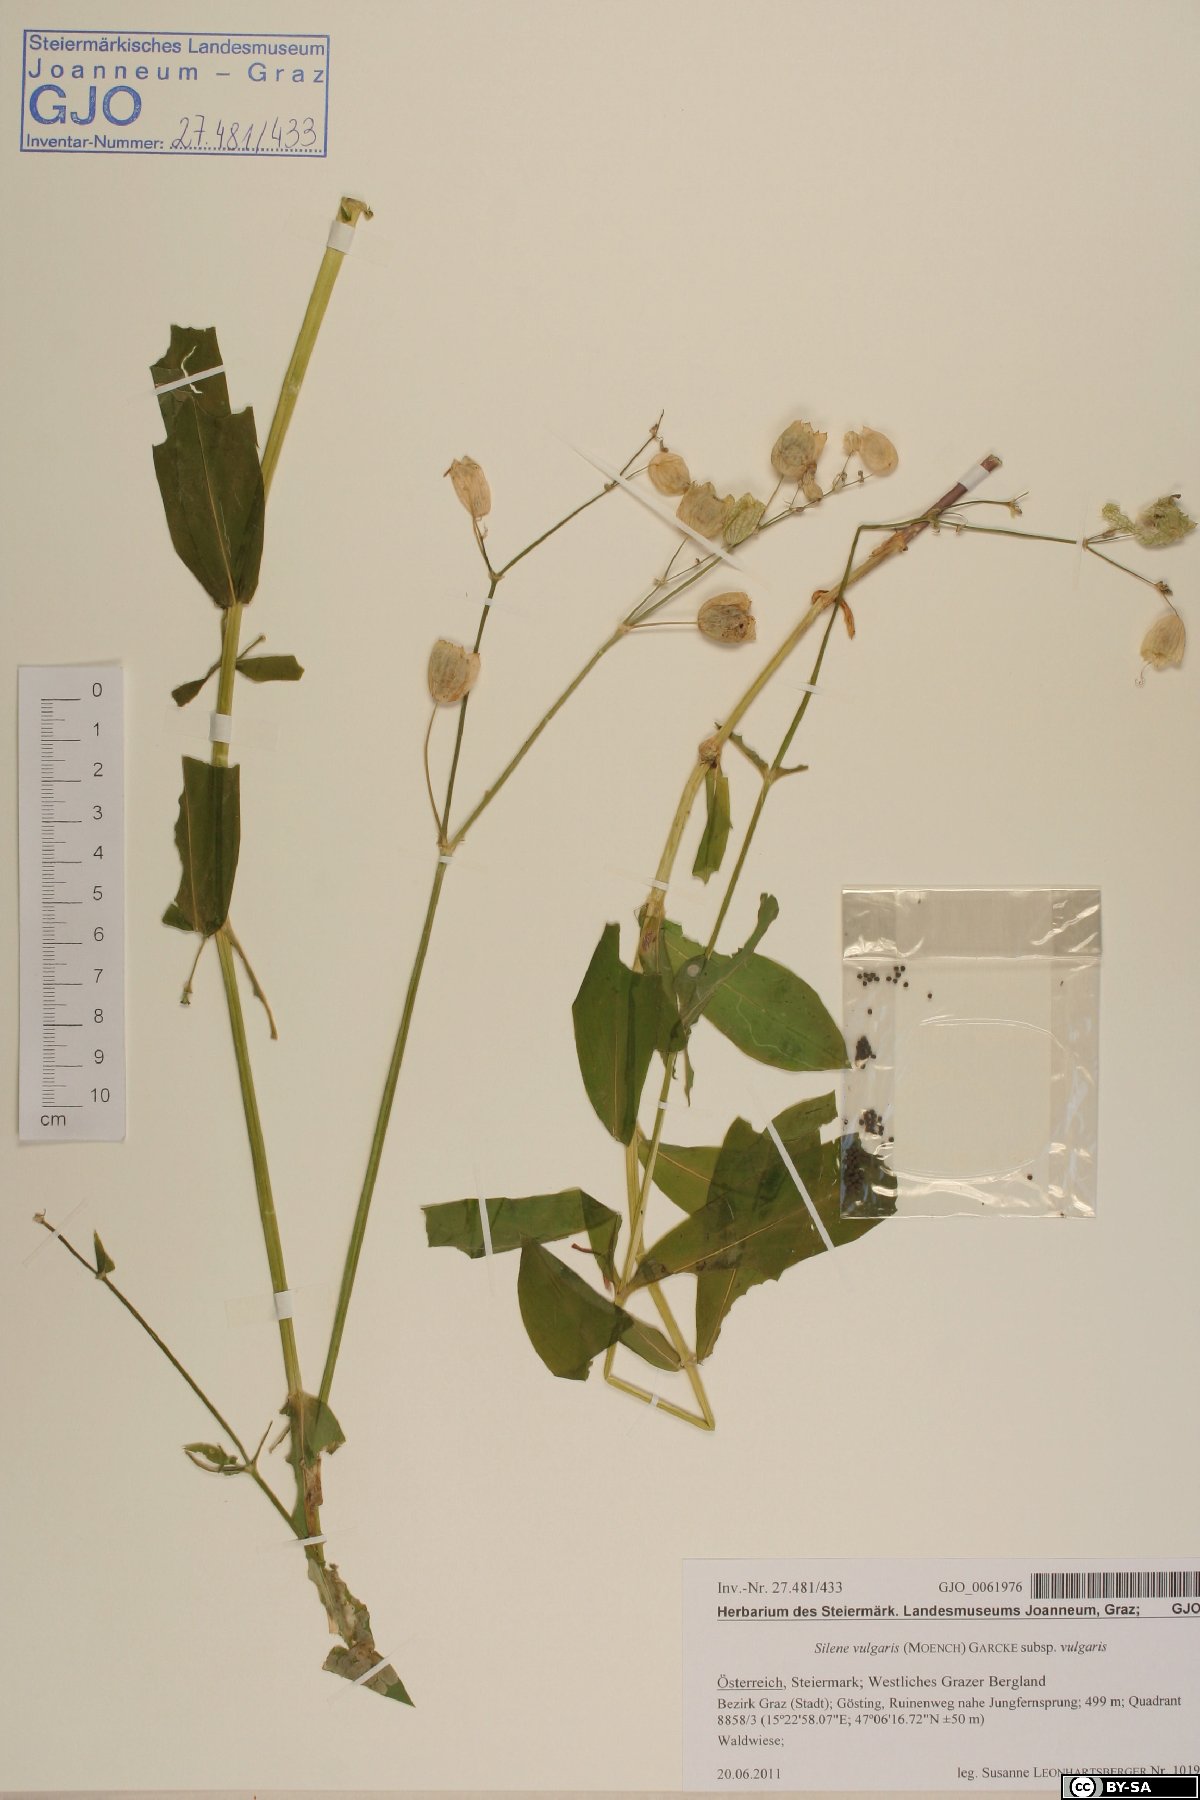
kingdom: Plantae
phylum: Tracheophyta
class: Magnoliopsida
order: Caryophyllales
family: Caryophyllaceae
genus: Silene
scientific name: Silene vulgaris
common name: Bladder campion
